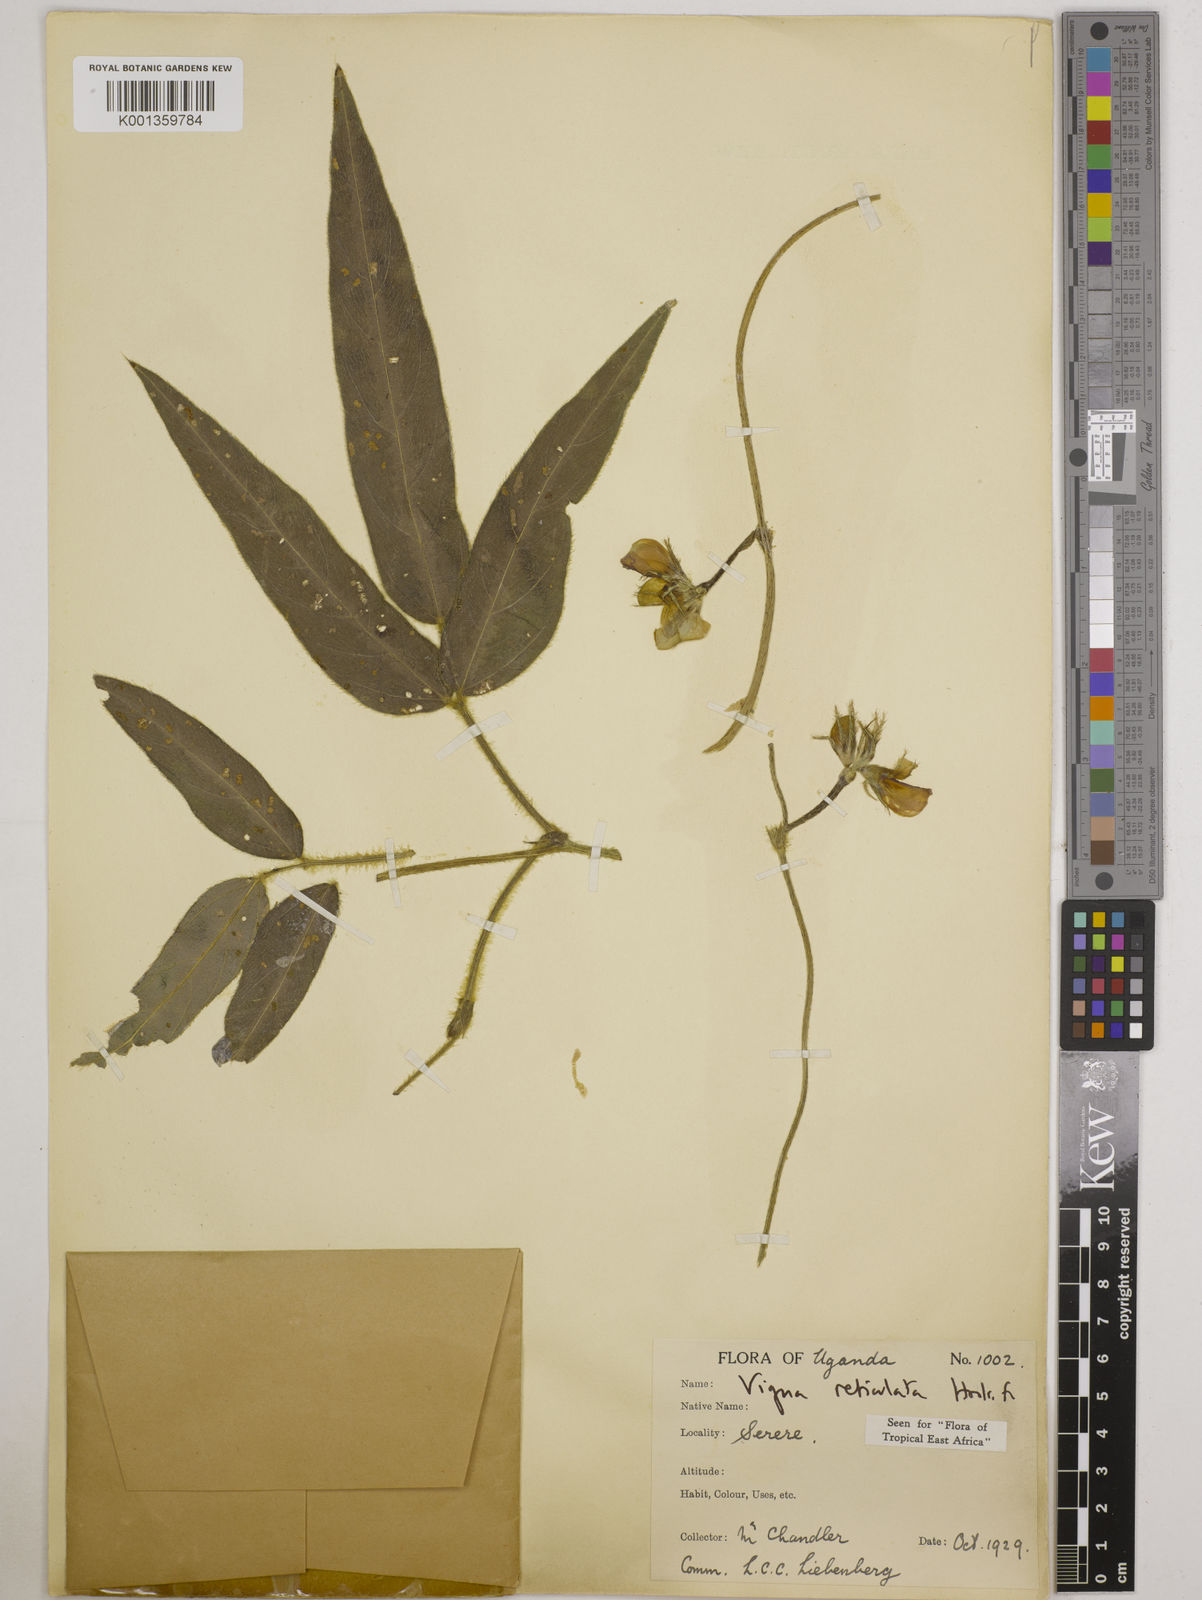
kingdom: Plantae
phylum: Tracheophyta
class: Magnoliopsida
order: Fabales
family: Fabaceae
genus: Vigna
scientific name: Vigna reticulata
